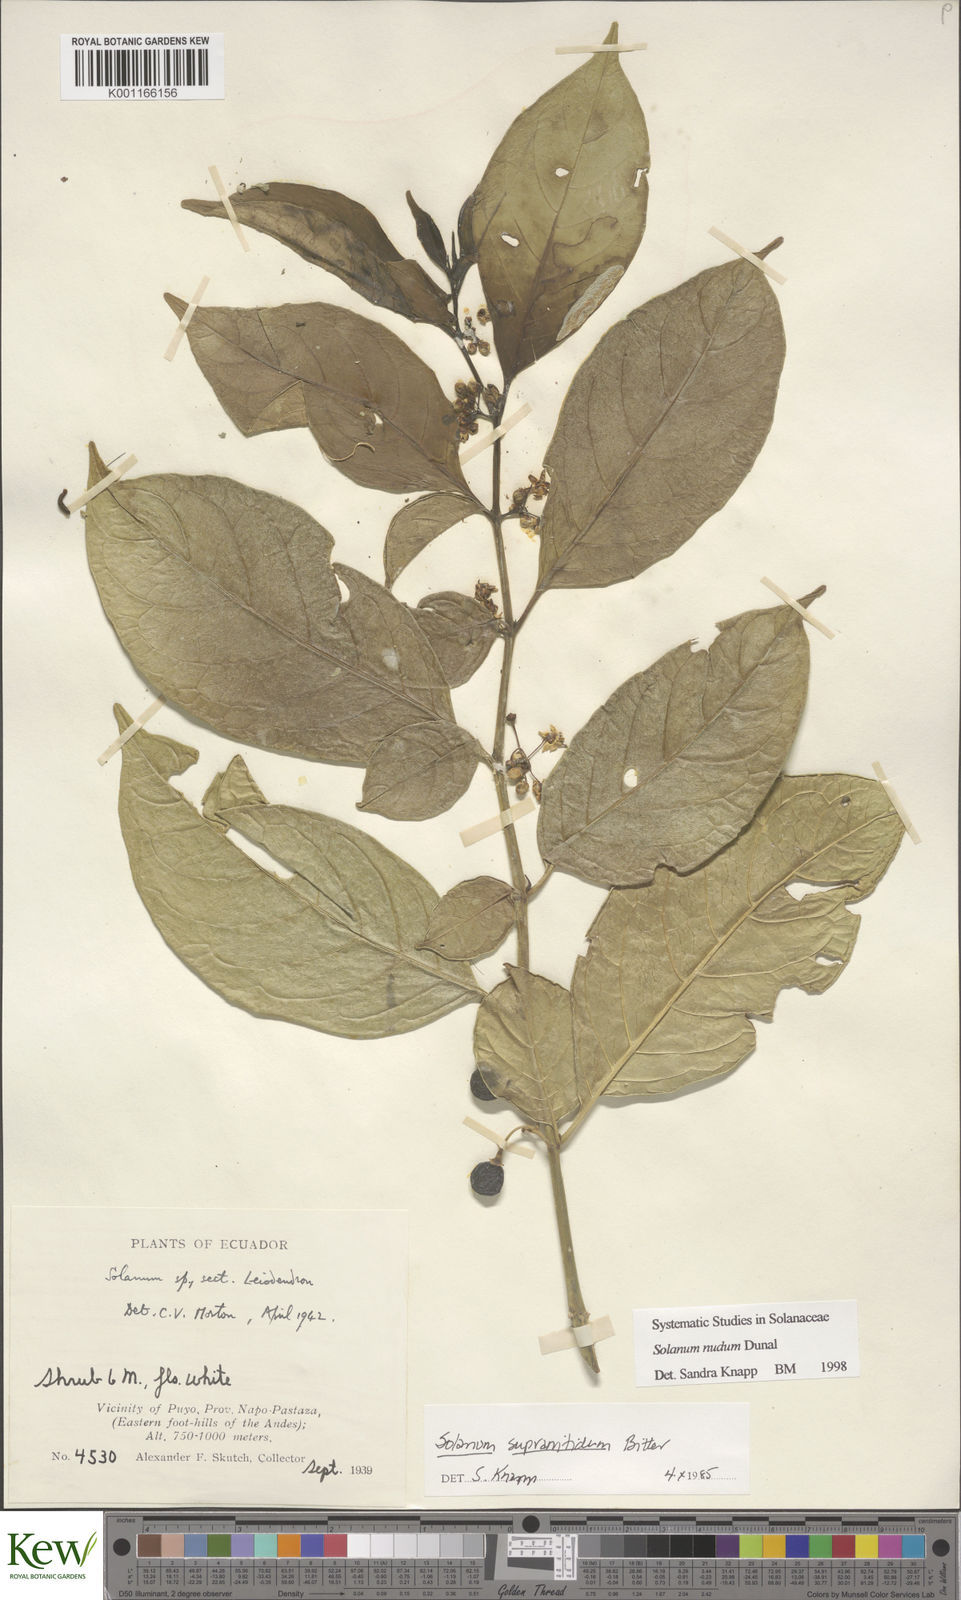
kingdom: Plantae
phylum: Tracheophyta
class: Magnoliopsida
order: Solanales
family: Solanaceae
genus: Solanum
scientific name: Solanum nudum
